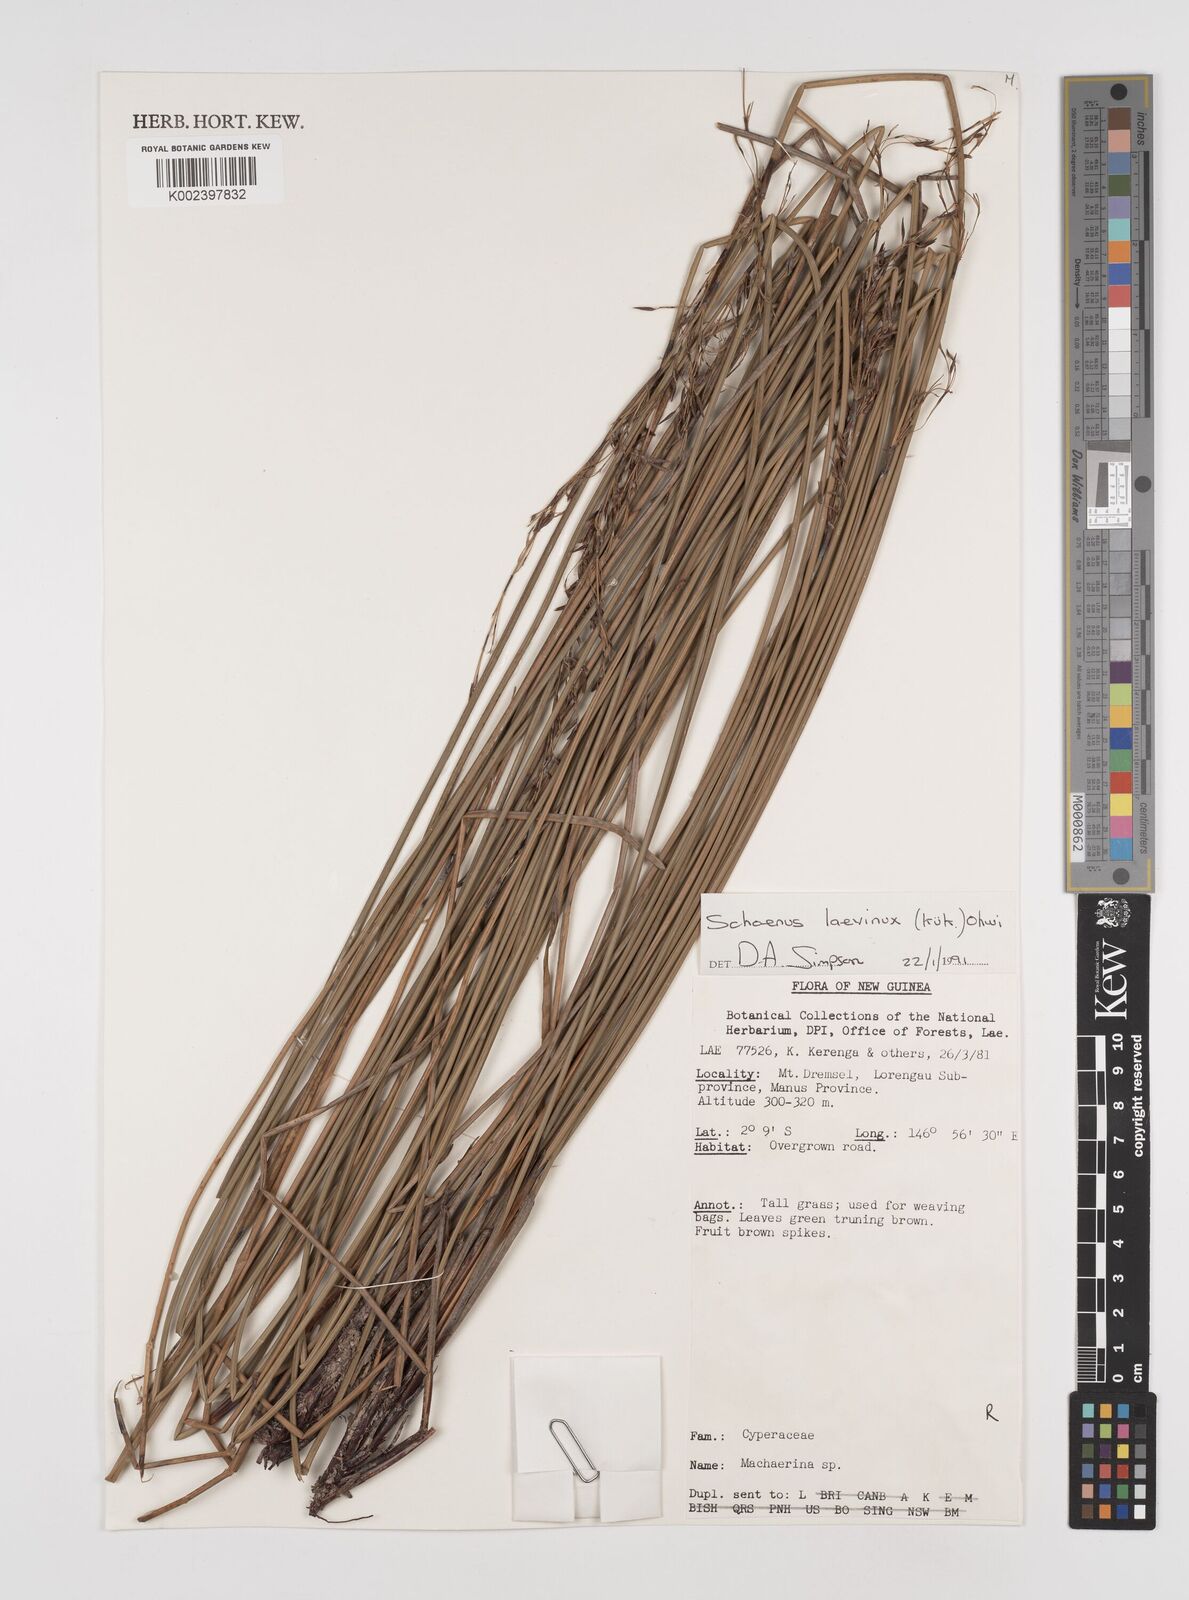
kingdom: Plantae
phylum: Tracheophyta
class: Liliopsida
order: Poales
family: Cyperaceae
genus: Schoenus
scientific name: Schoenus laevinux
